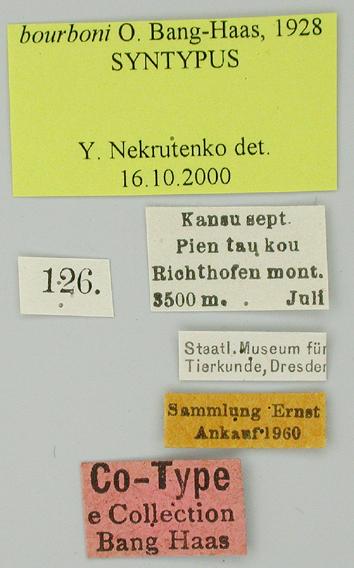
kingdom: Animalia
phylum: Arthropoda
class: Insecta
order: Lepidoptera
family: Papilionidae
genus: Parnassius
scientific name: Parnassius orleans
